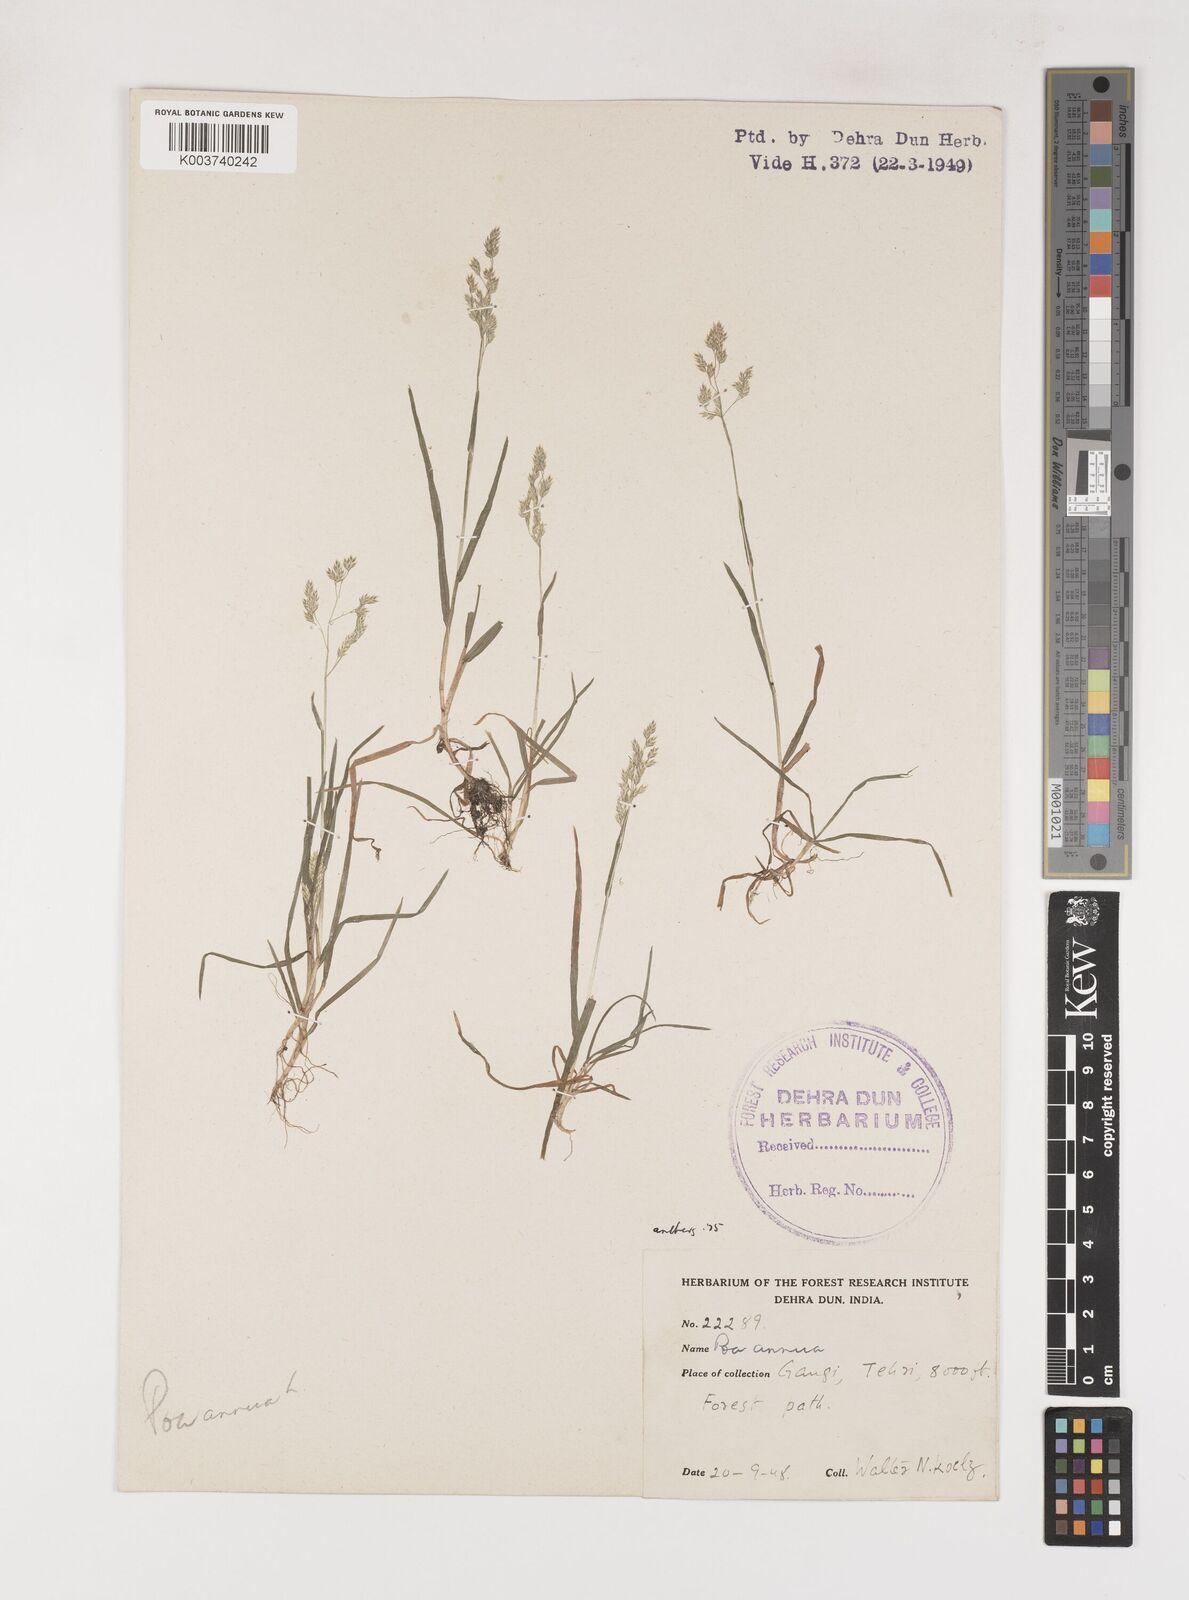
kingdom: Plantae
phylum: Tracheophyta
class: Liliopsida
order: Poales
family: Poaceae
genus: Poa
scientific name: Poa annua
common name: Annual bluegrass
